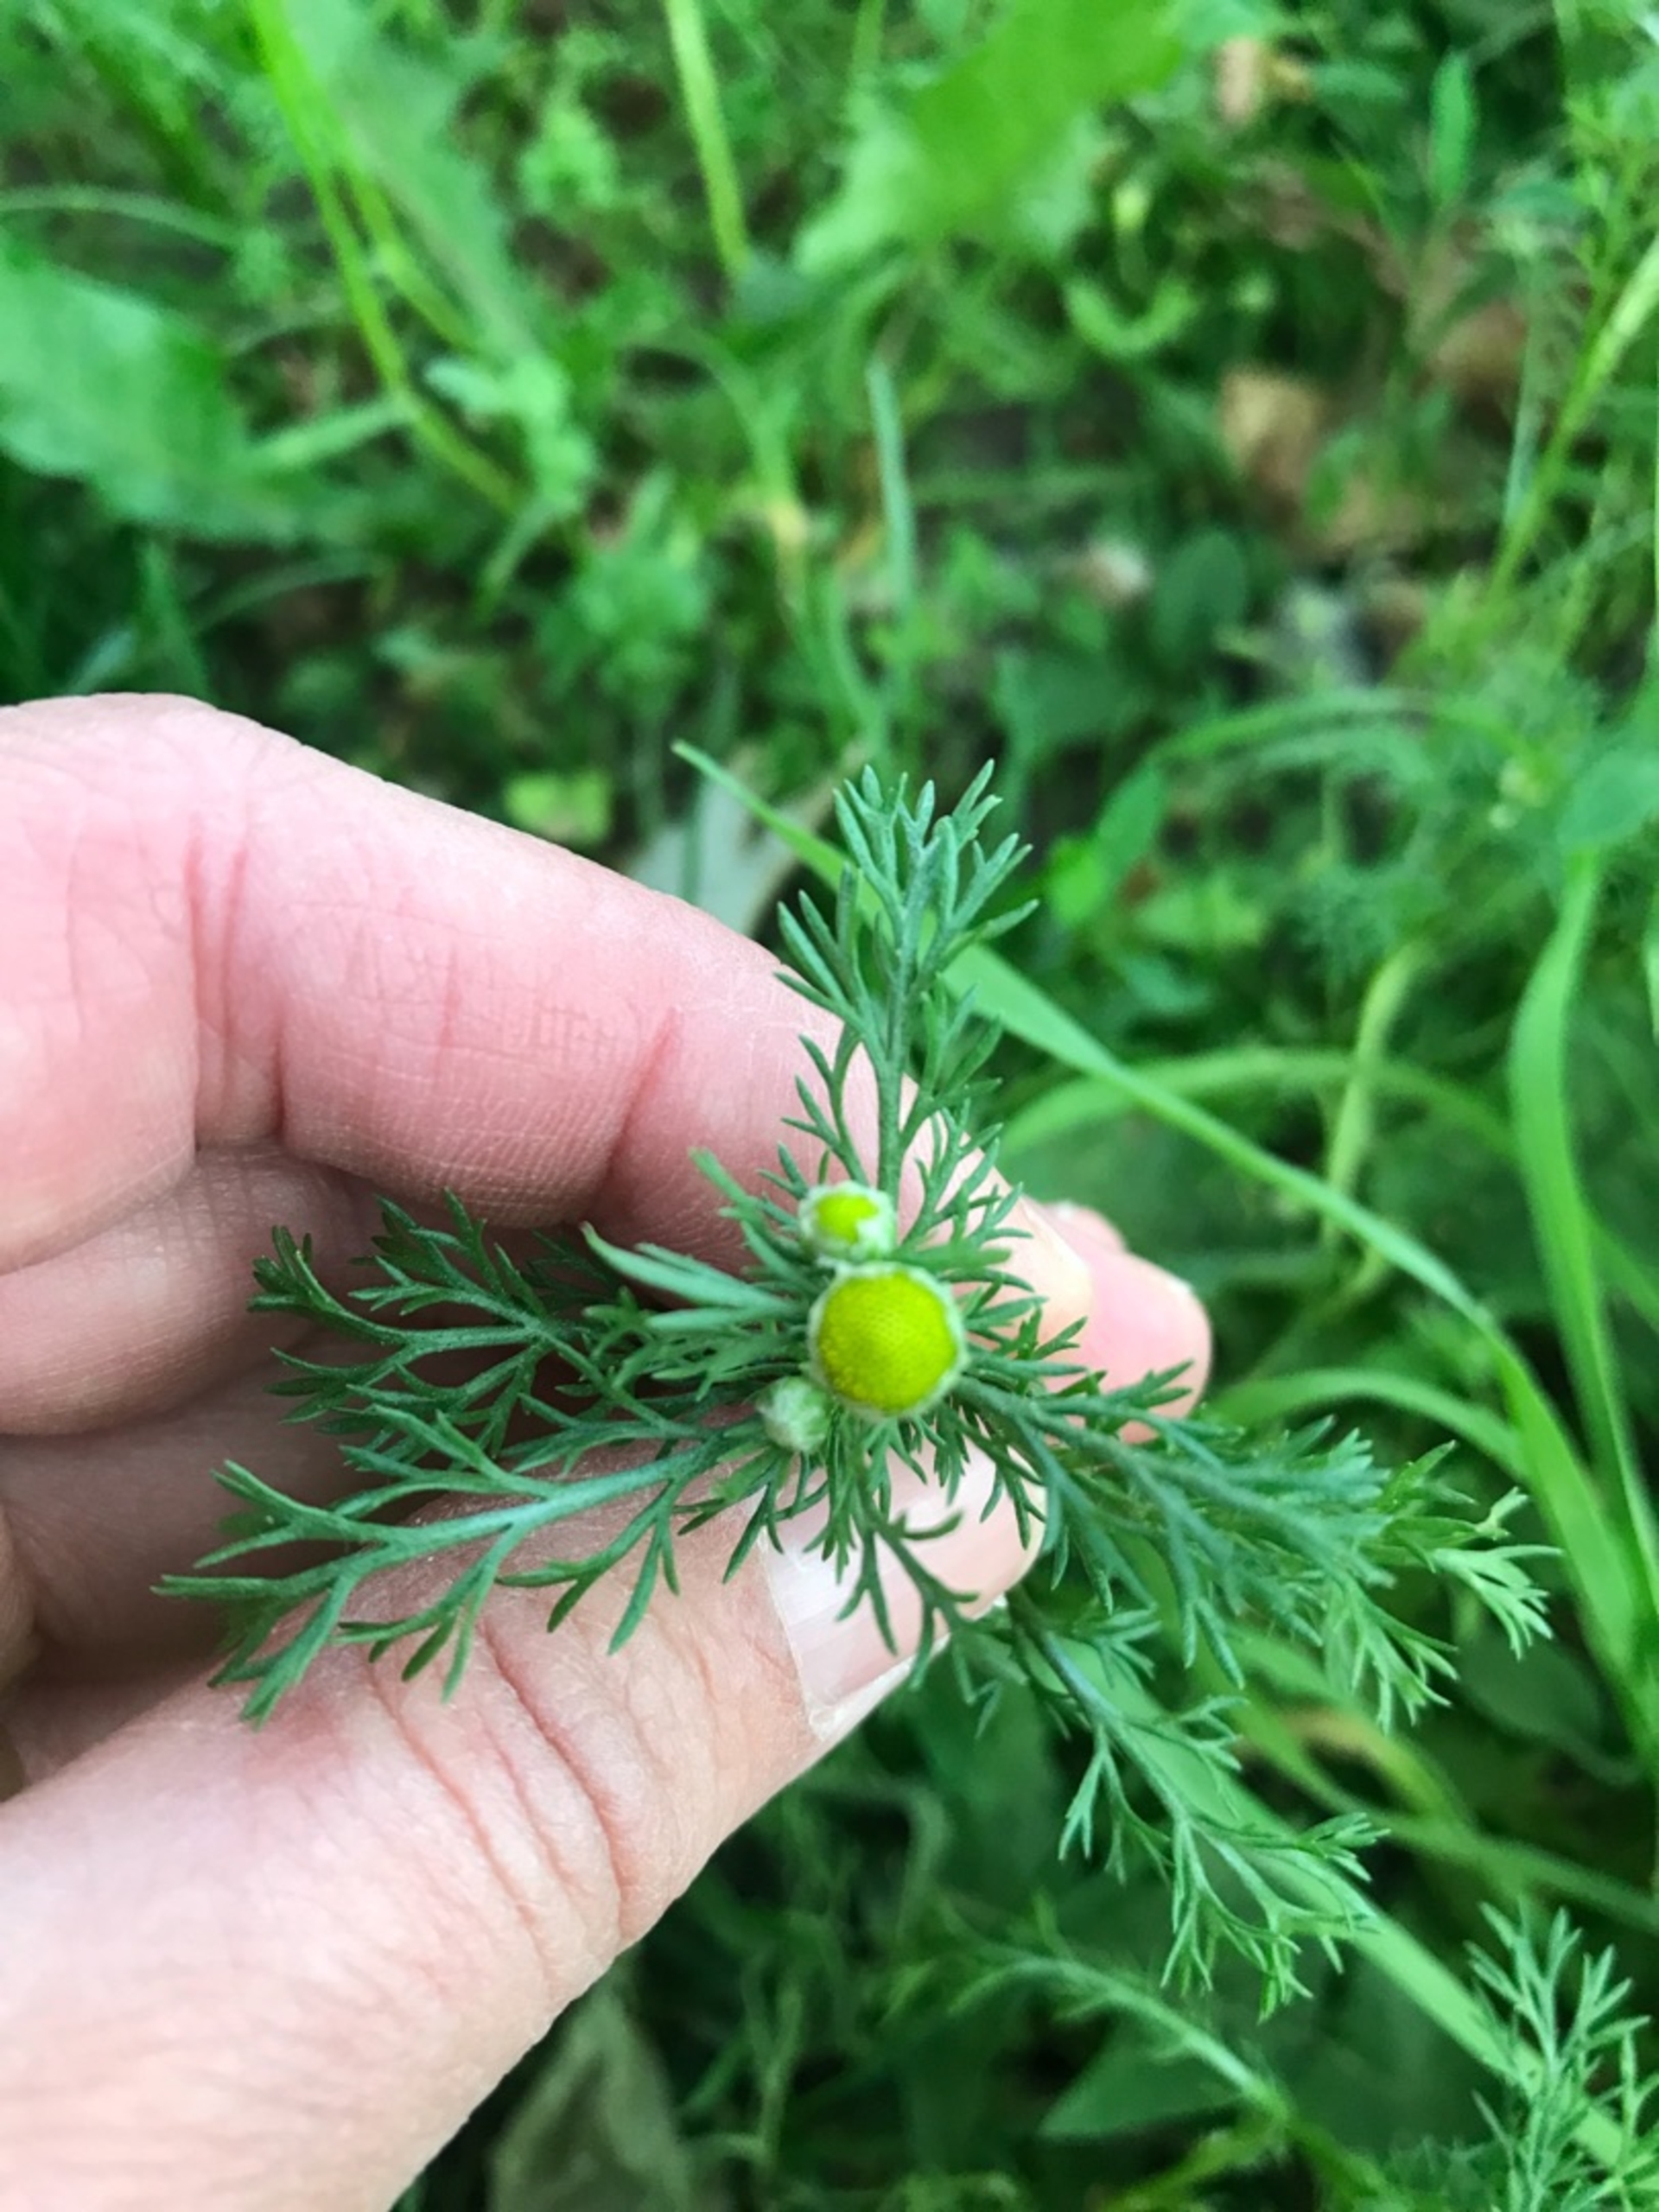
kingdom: Plantae
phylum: Tracheophyta
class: Magnoliopsida
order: Asterales
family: Asteraceae
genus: Matricaria
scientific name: Matricaria discoidea
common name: Skive-kamille
